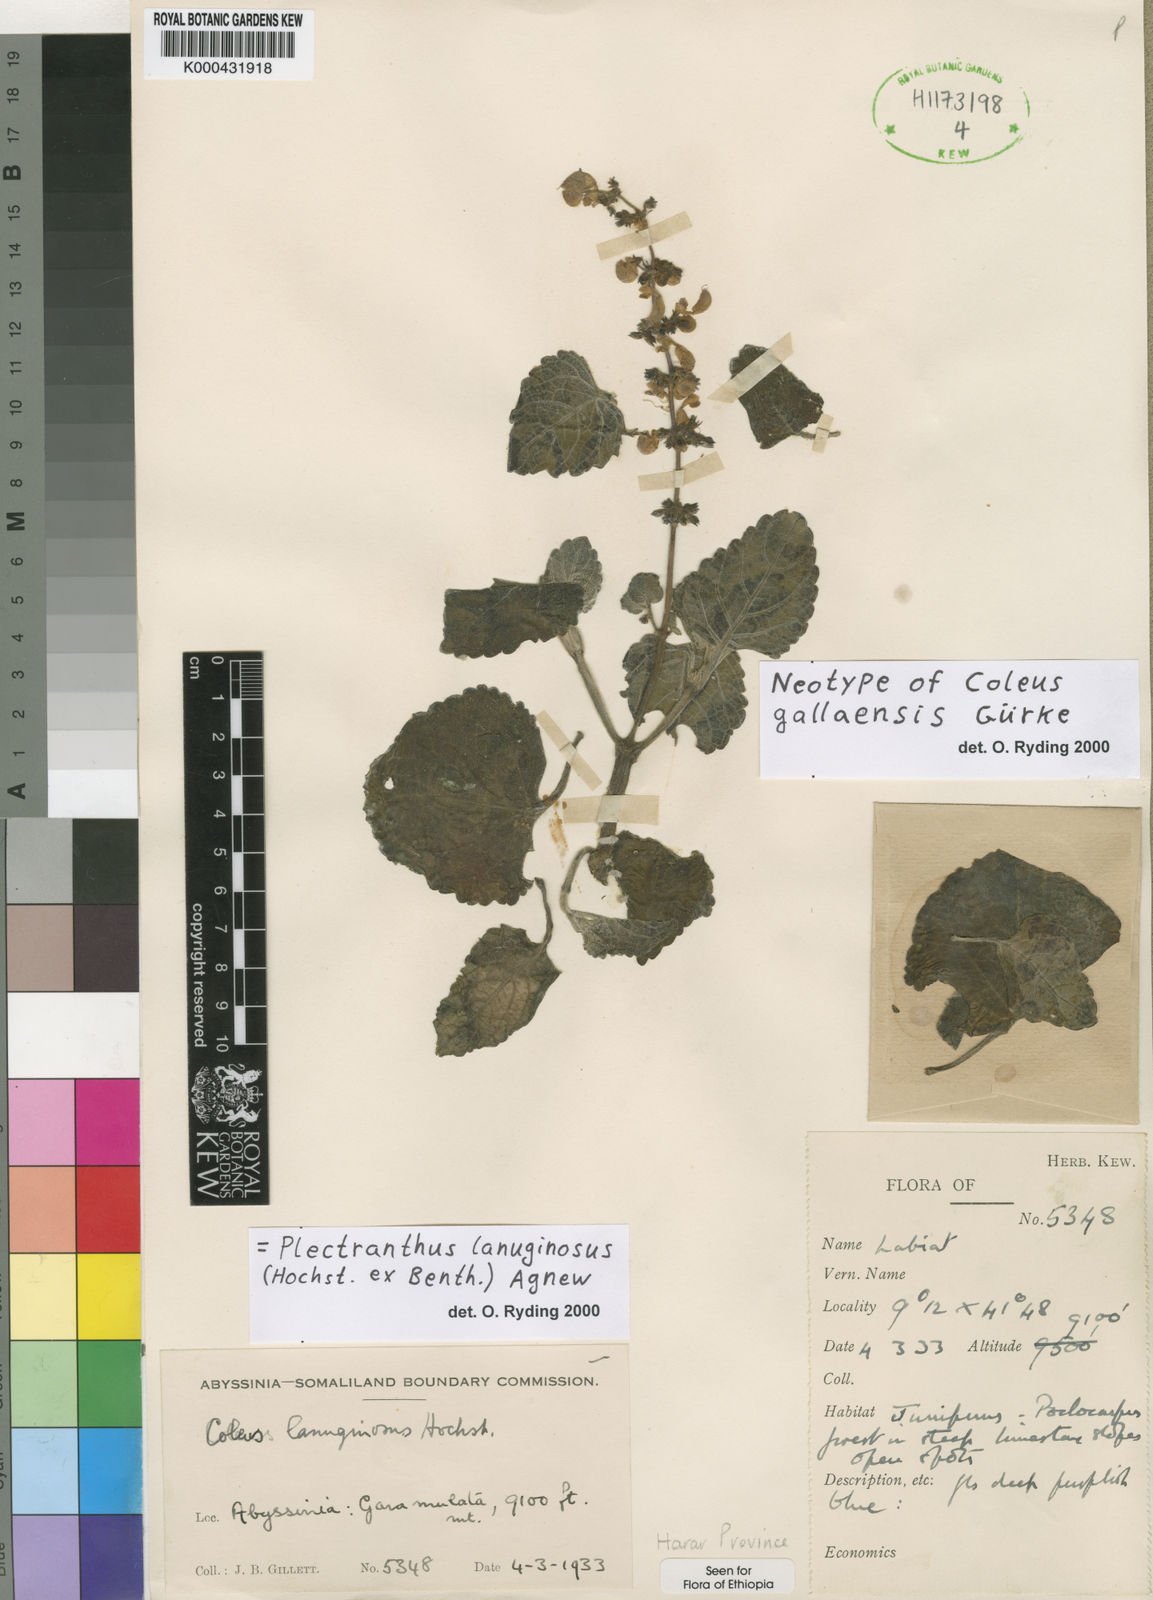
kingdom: Plantae
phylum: Tracheophyta
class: Magnoliopsida
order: Lamiales
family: Lamiaceae
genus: Coleus
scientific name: Coleus lanuginosus
